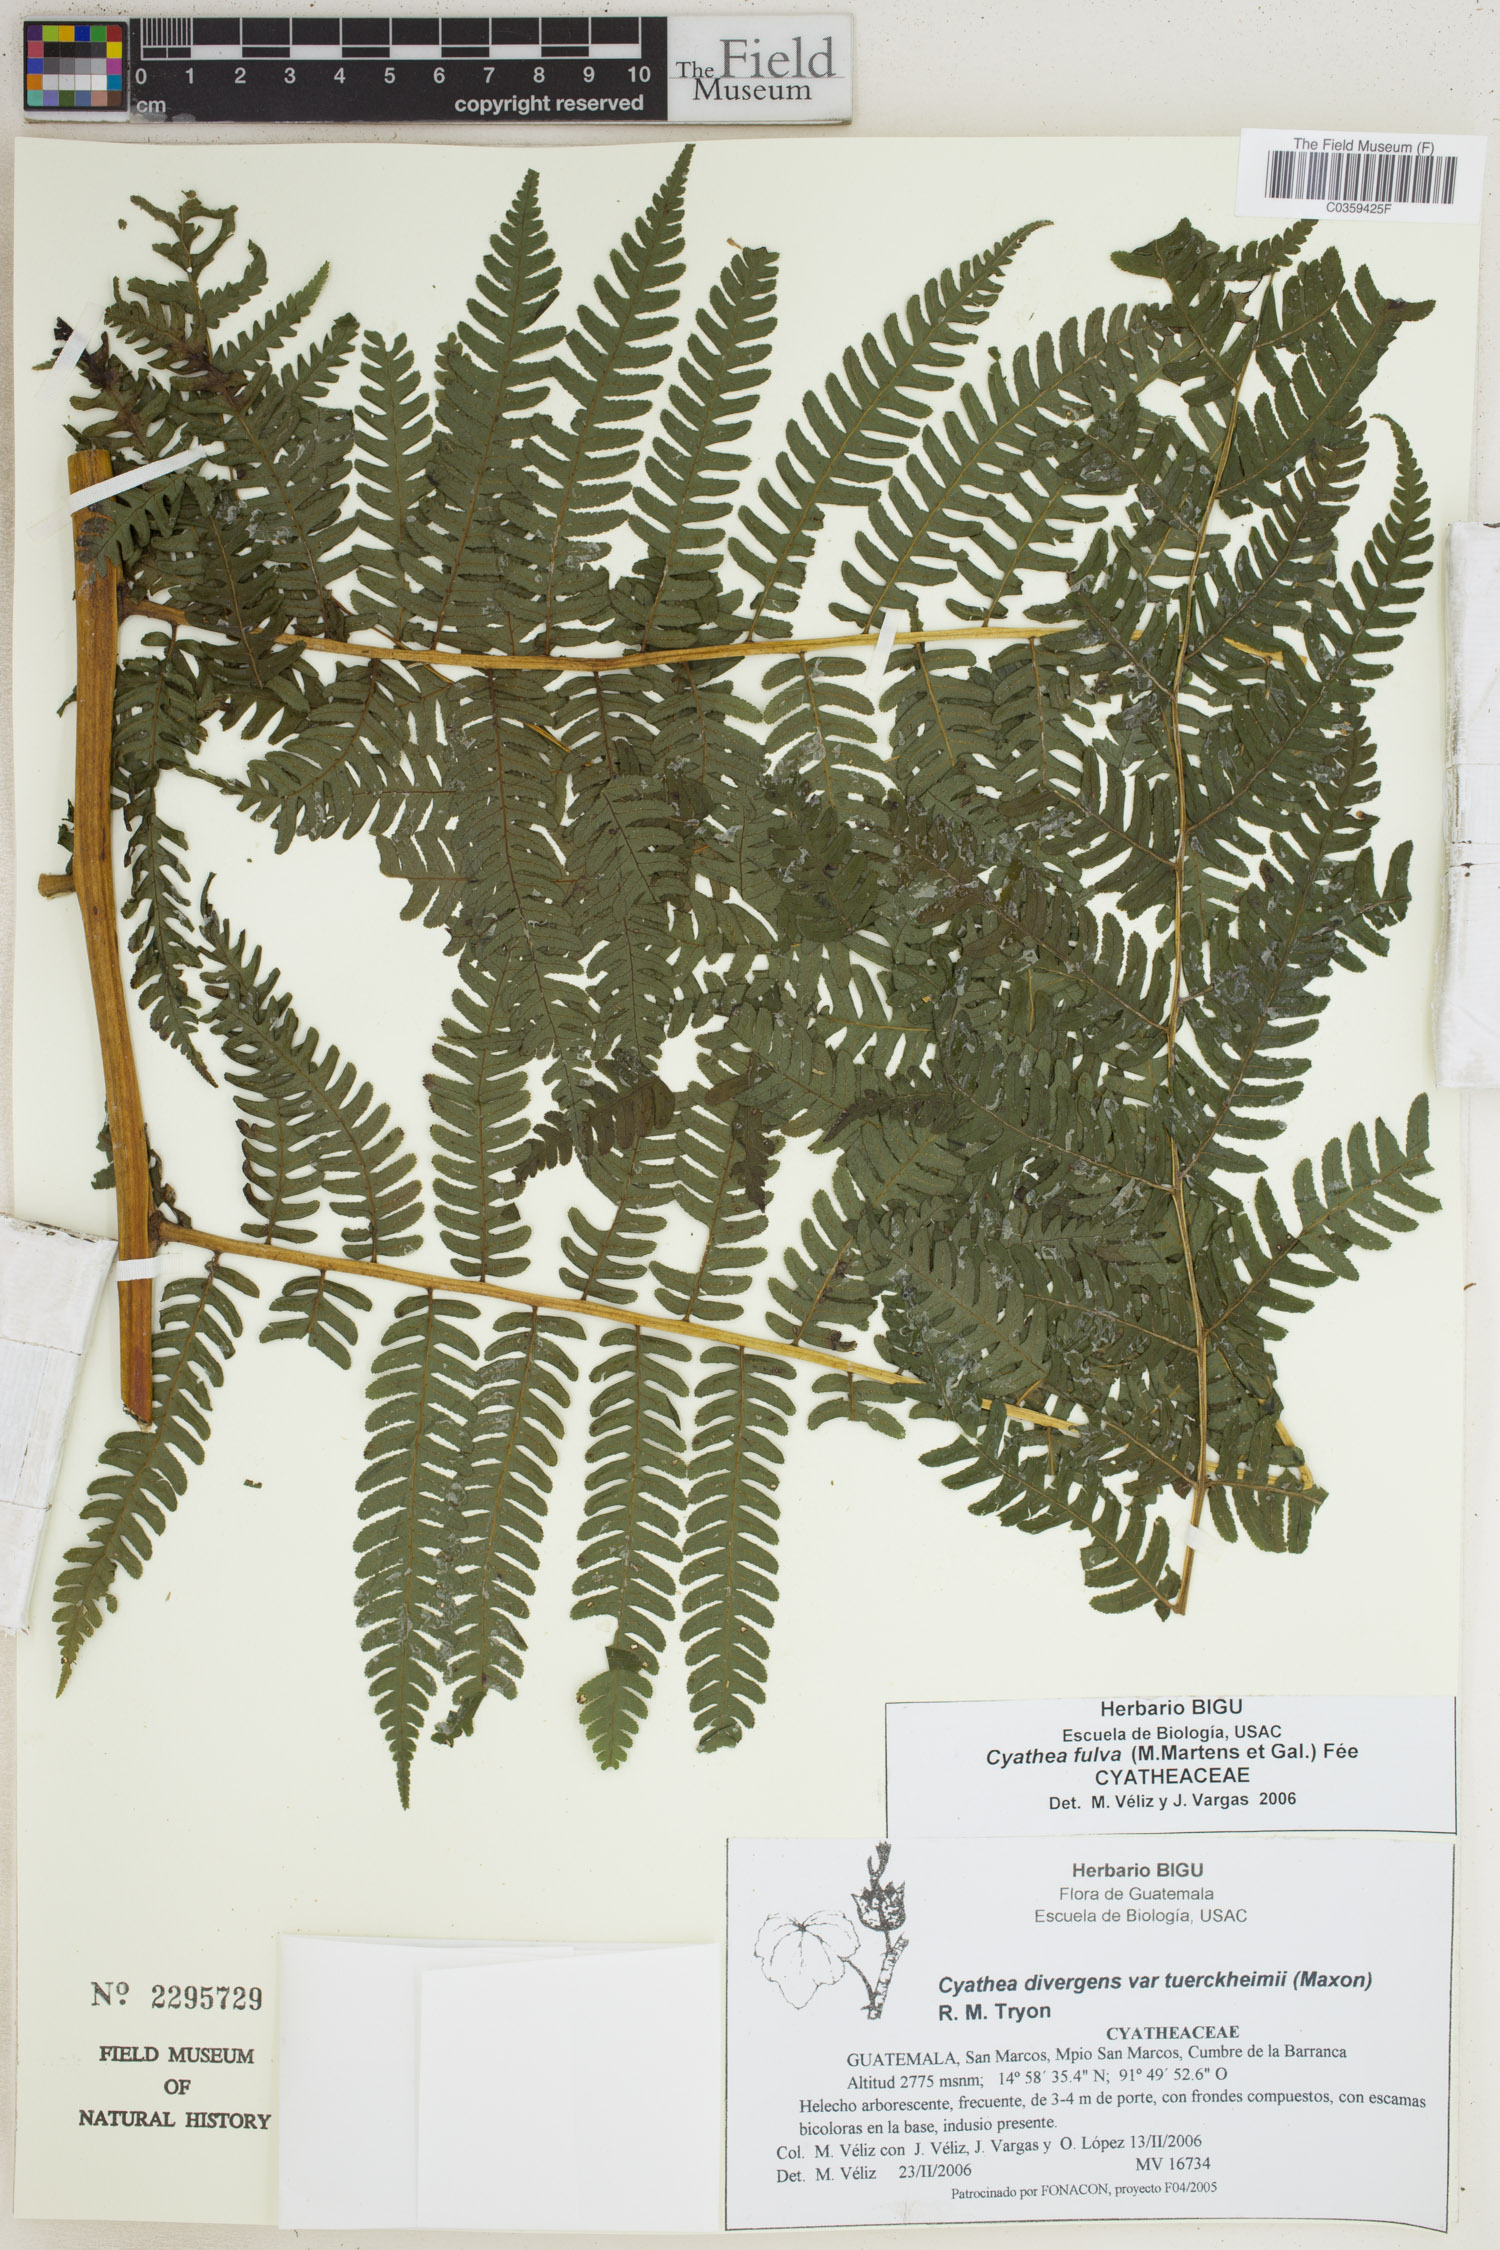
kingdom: Plantae
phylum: Tracheophyta
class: Polypodiopsida
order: Cyatheales
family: Cyatheaceae
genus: Cyathea
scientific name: Cyathea fulva
